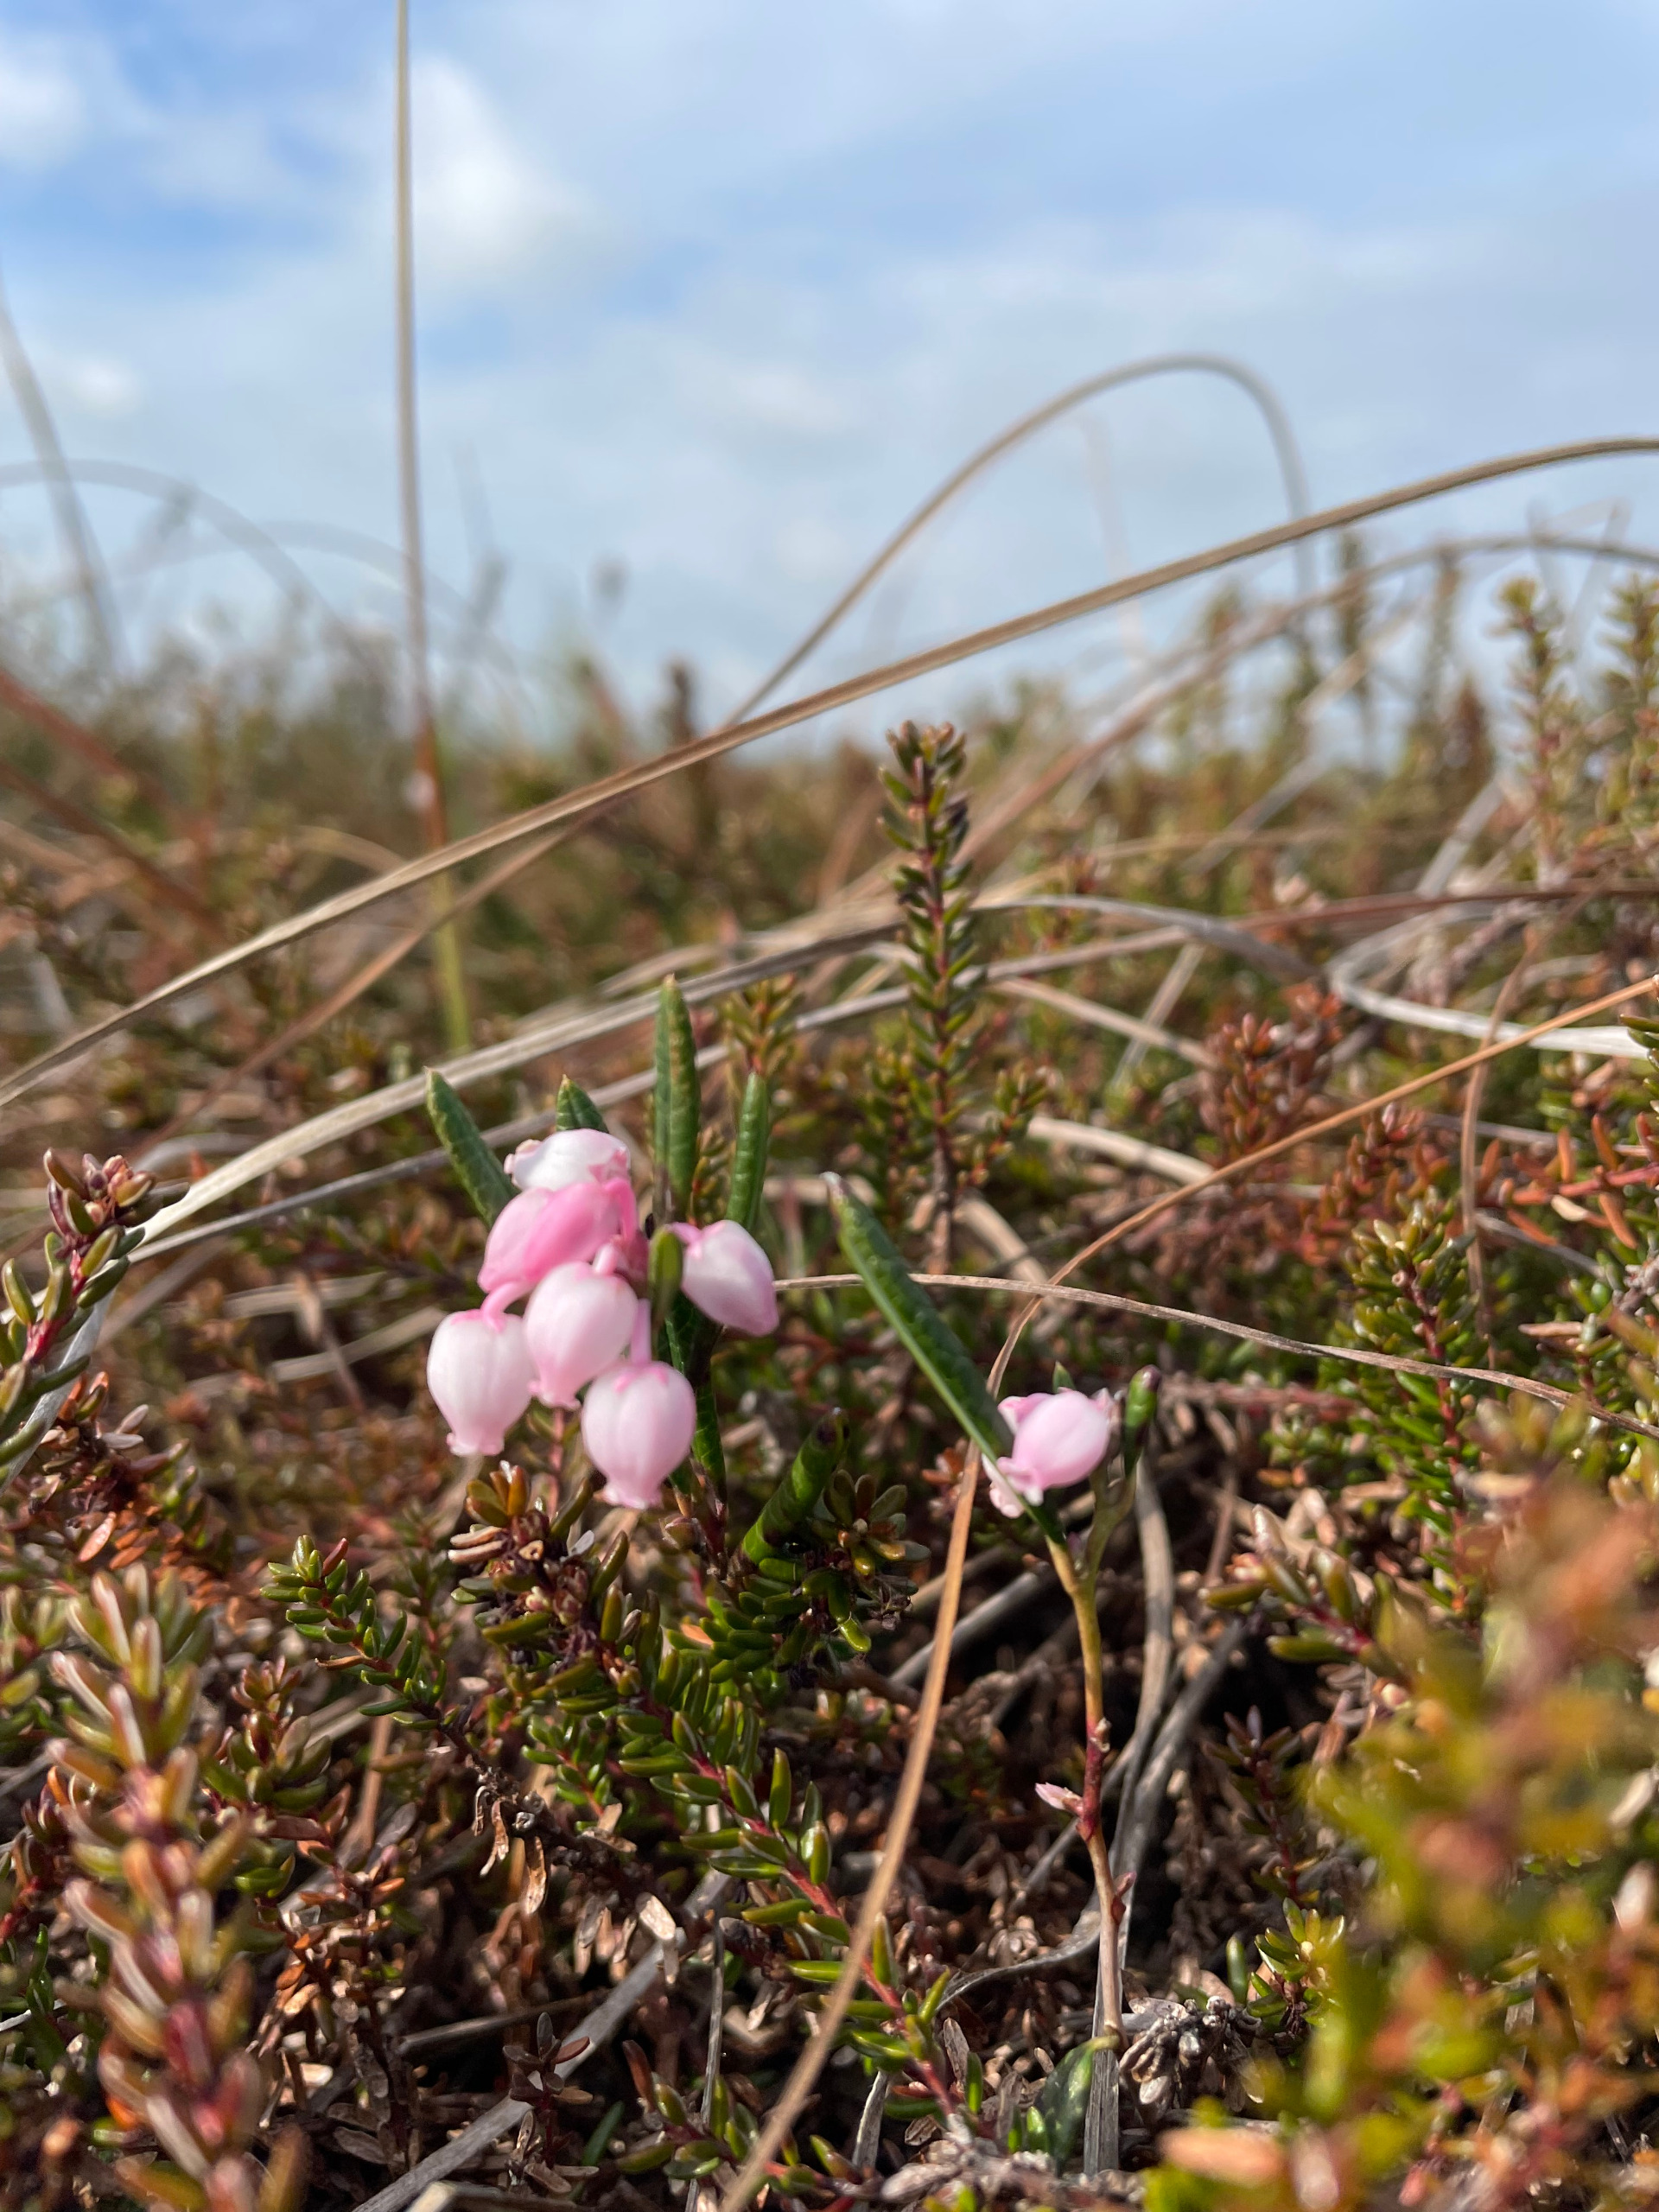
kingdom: Plantae
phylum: Tracheophyta
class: Magnoliopsida
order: Ericales
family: Ericaceae
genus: Andromeda
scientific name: Andromeda polifolia
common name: Rosmarinlyng
